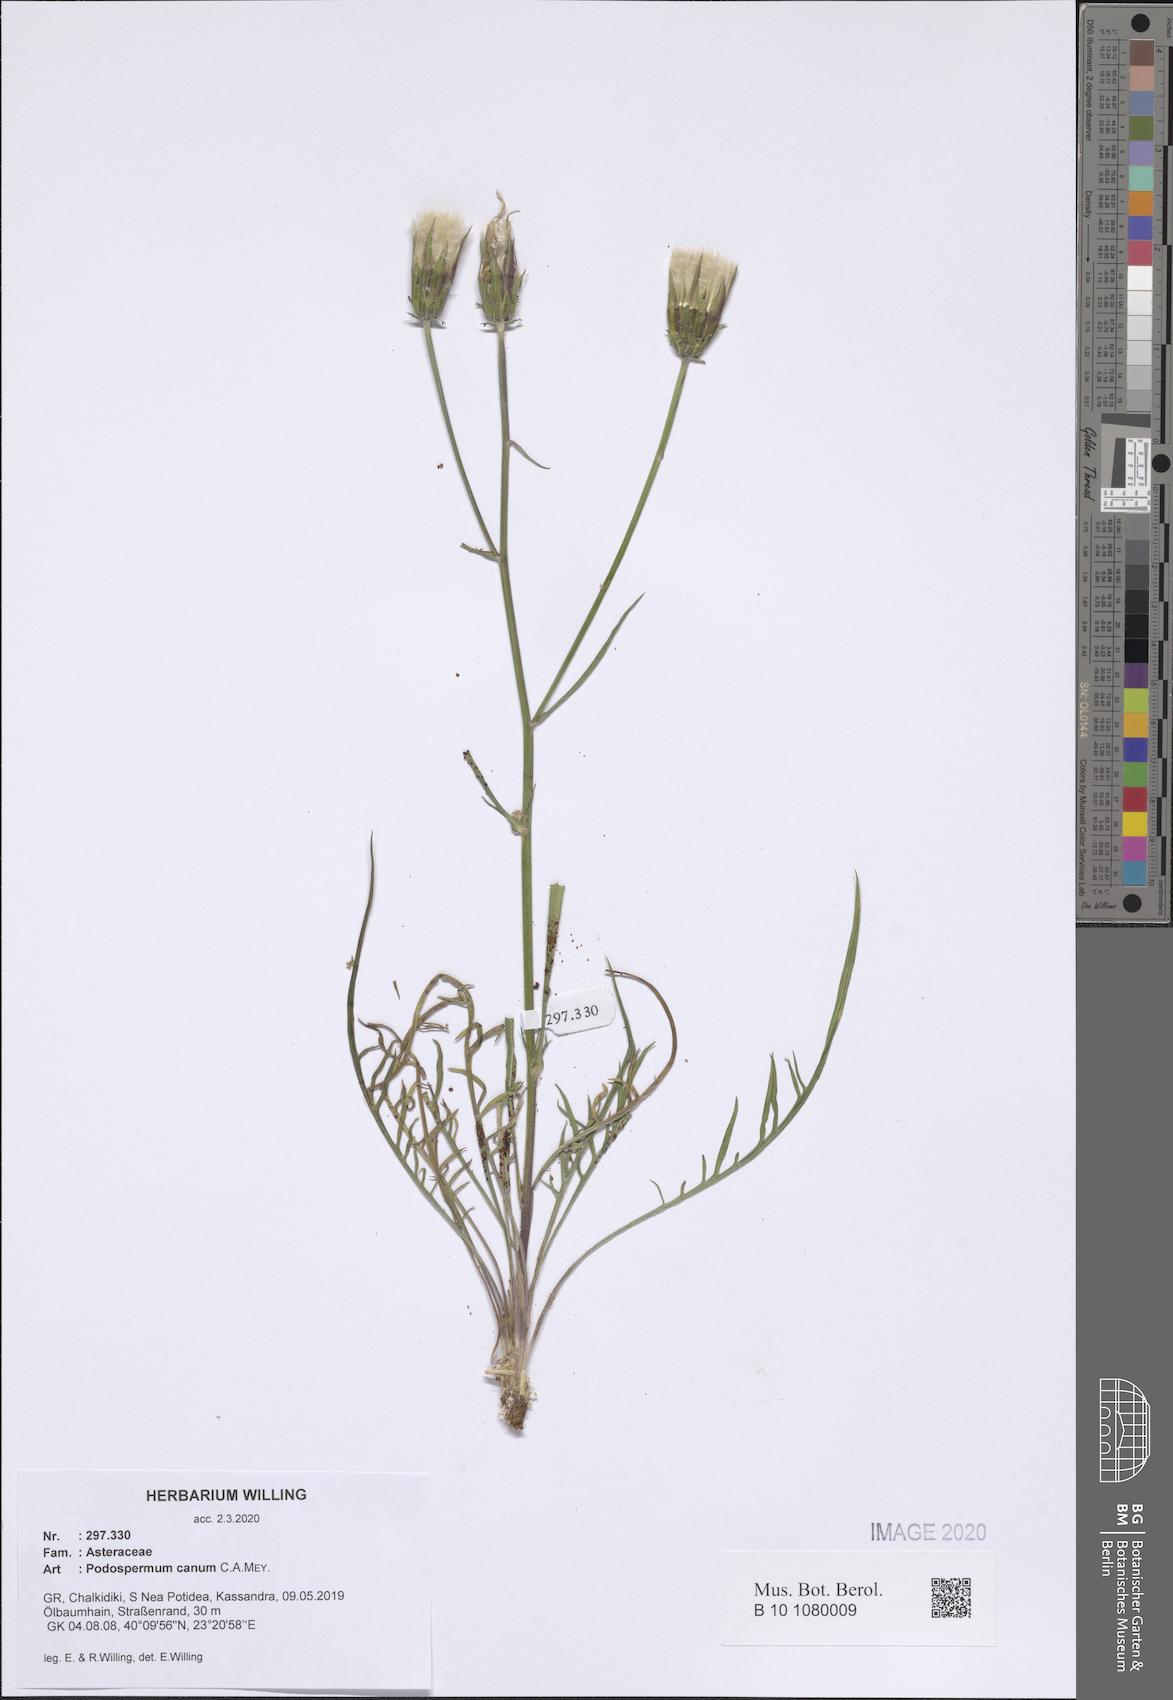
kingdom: Plantae
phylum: Tracheophyta
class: Magnoliopsida
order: Asterales
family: Asteraceae
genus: Scorzonera
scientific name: Scorzonera cana
